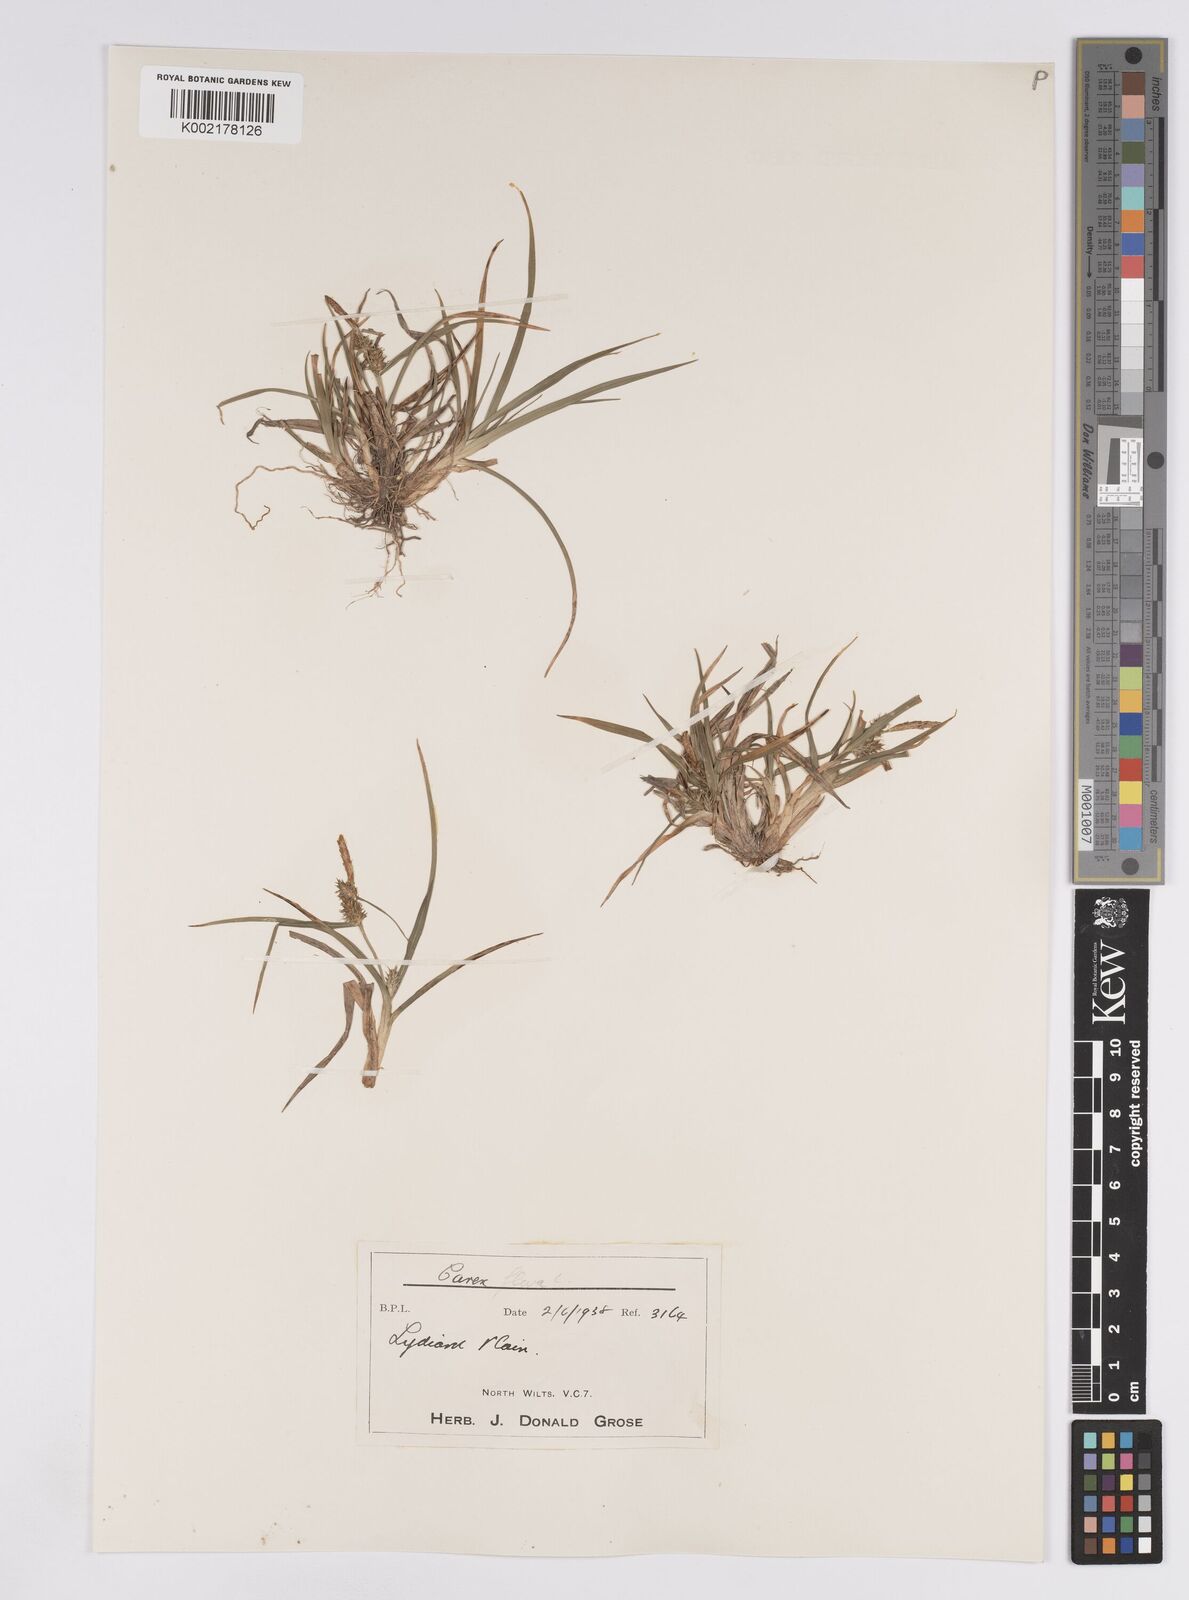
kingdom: Plantae
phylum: Tracheophyta
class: Liliopsida
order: Poales
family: Cyperaceae
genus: Carex
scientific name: Carex demissa
